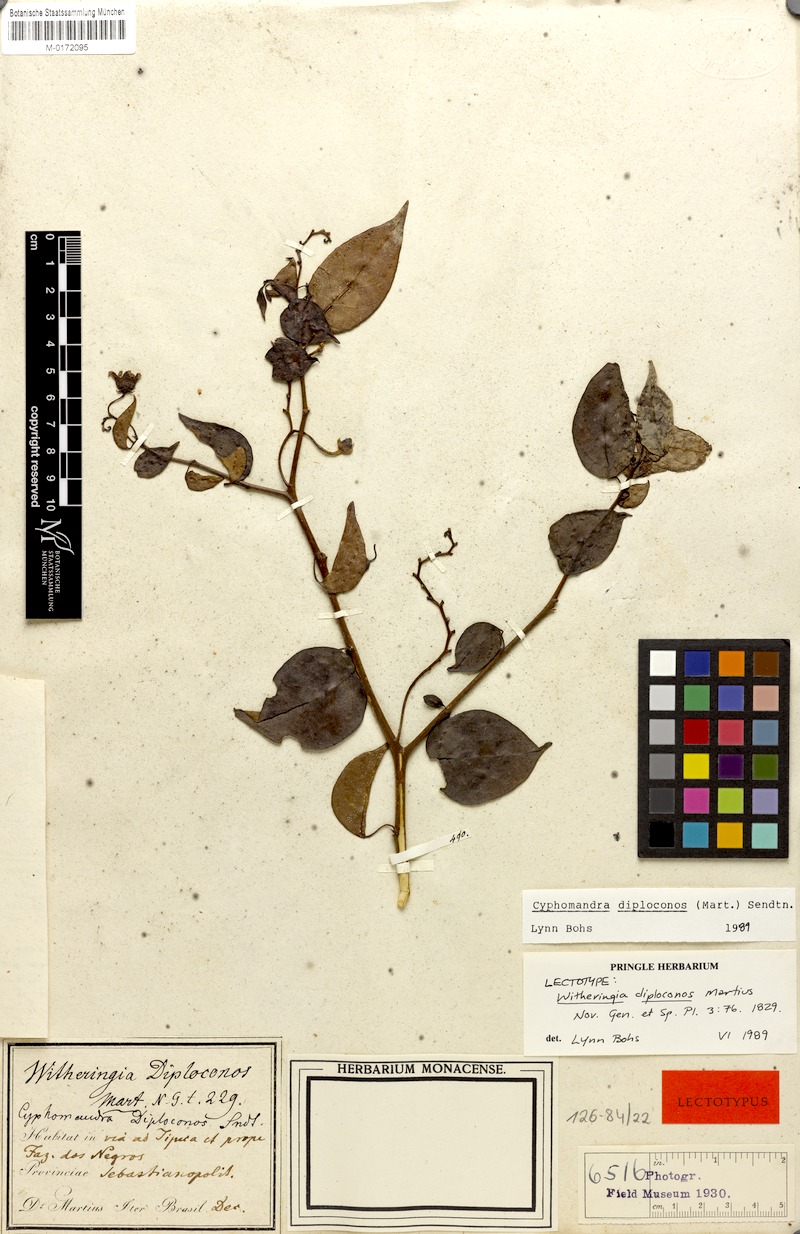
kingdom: Plantae
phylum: Tracheophyta
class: Magnoliopsida
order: Solanales
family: Solanaceae
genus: Solanum
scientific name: Solanum diploconos
